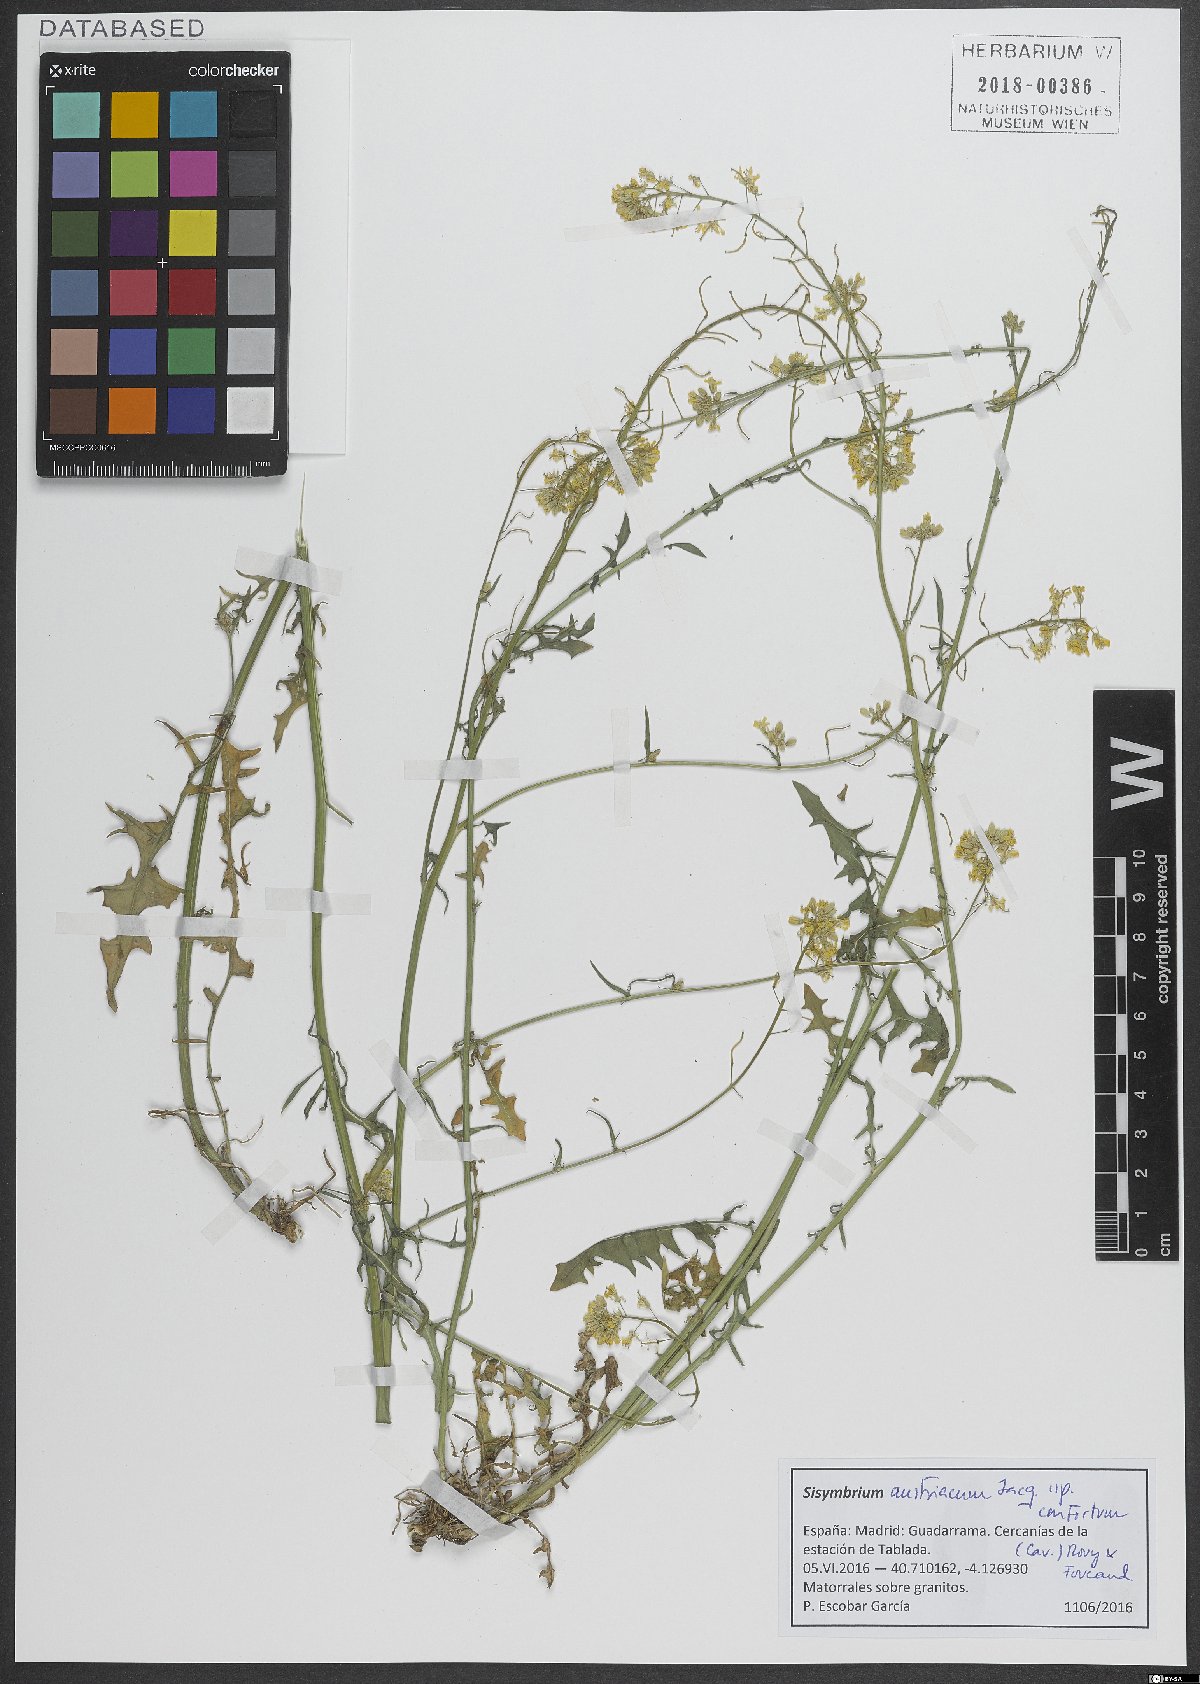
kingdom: Plantae
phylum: Tracheophyta
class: Magnoliopsida
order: Brassicales
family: Brassicaceae
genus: Sisymbrium
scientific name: Sisymbrium hispanicum
